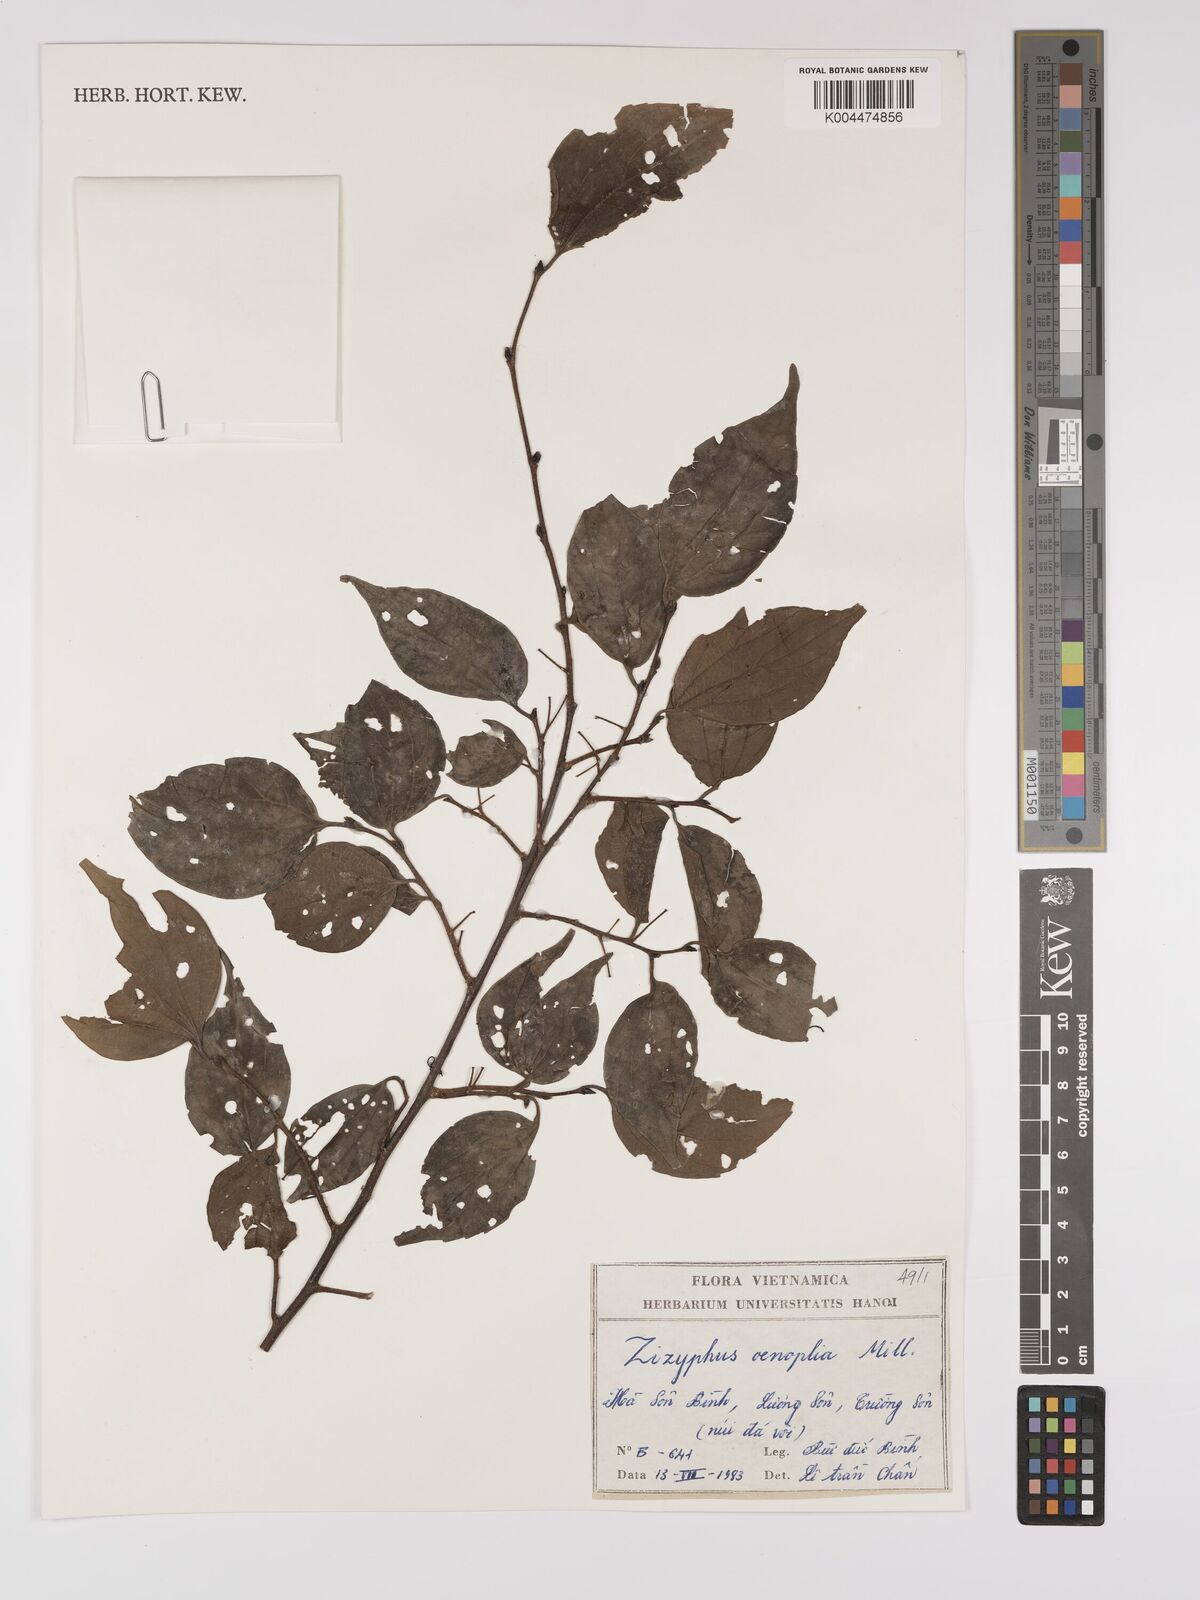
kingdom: Plantae
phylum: Tracheophyta
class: Magnoliopsida
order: Rosales
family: Rhamnaceae
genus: Ziziphus
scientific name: Ziziphus oenopolia
